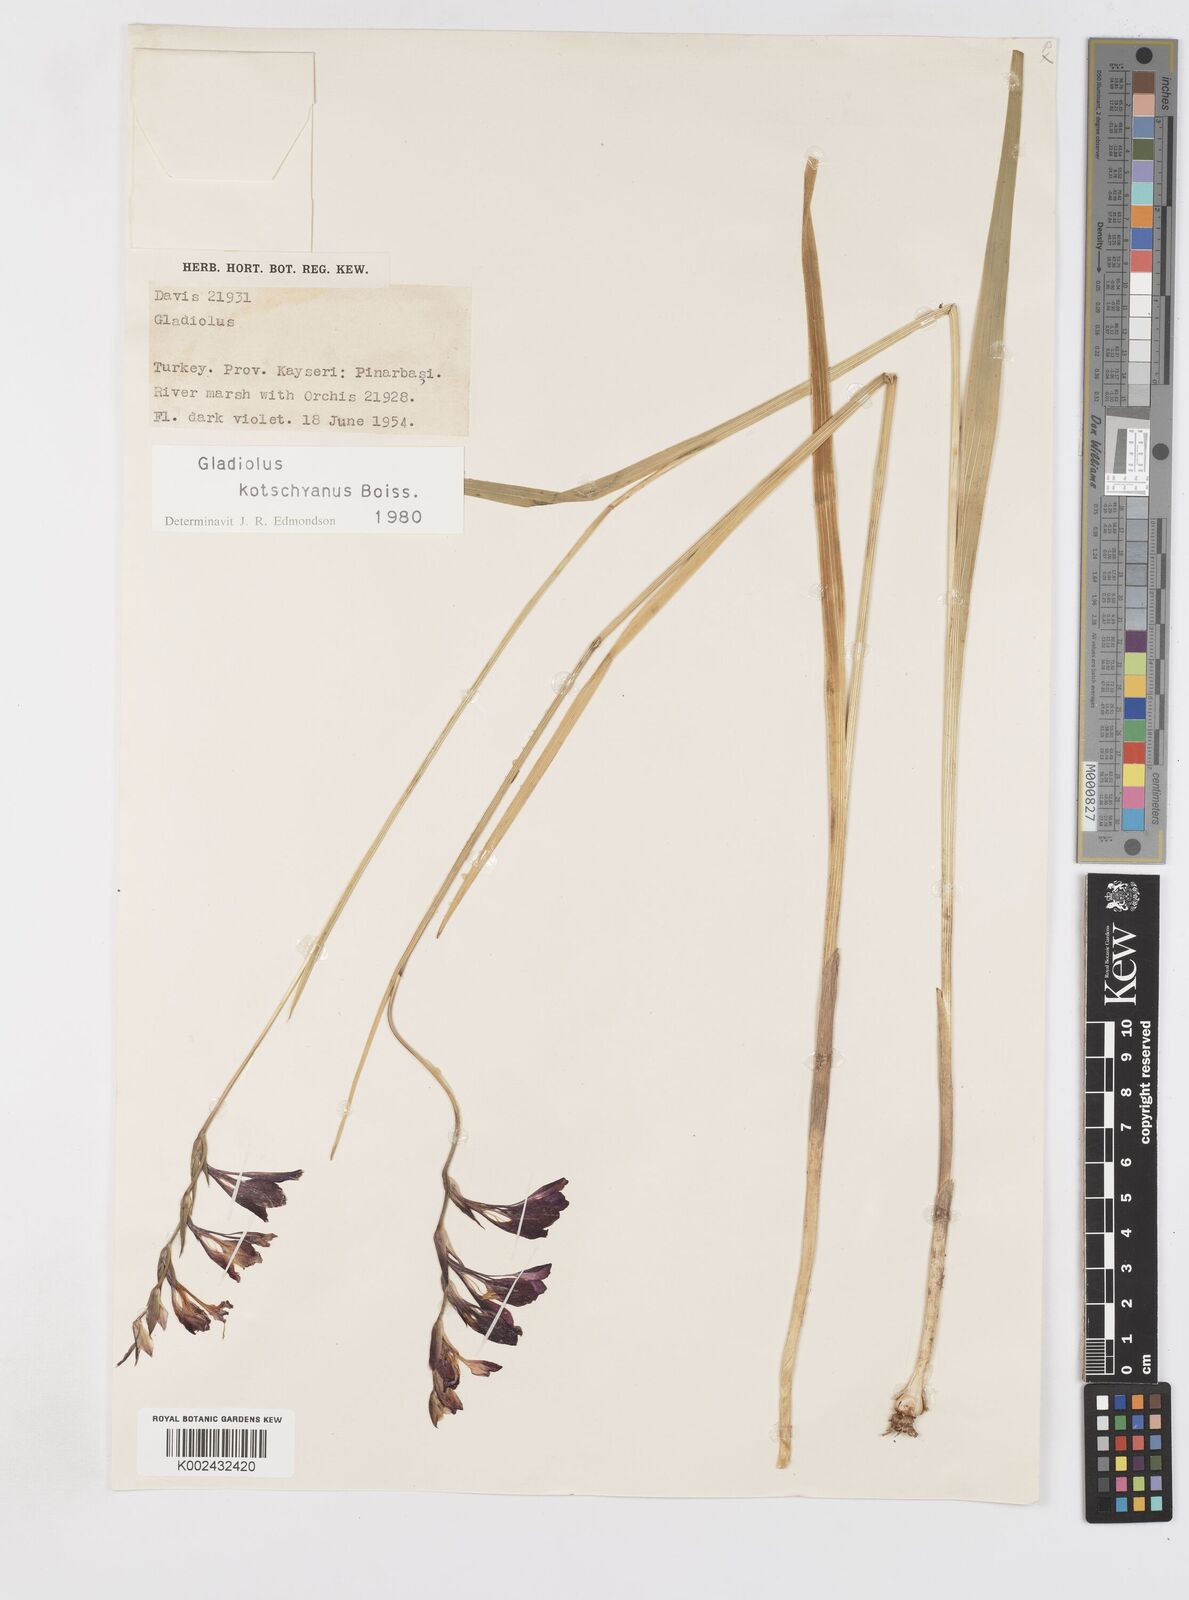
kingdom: Plantae
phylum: Tracheophyta
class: Liliopsida
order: Asparagales
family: Iridaceae
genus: Gladiolus
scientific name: Gladiolus kotschyanus
